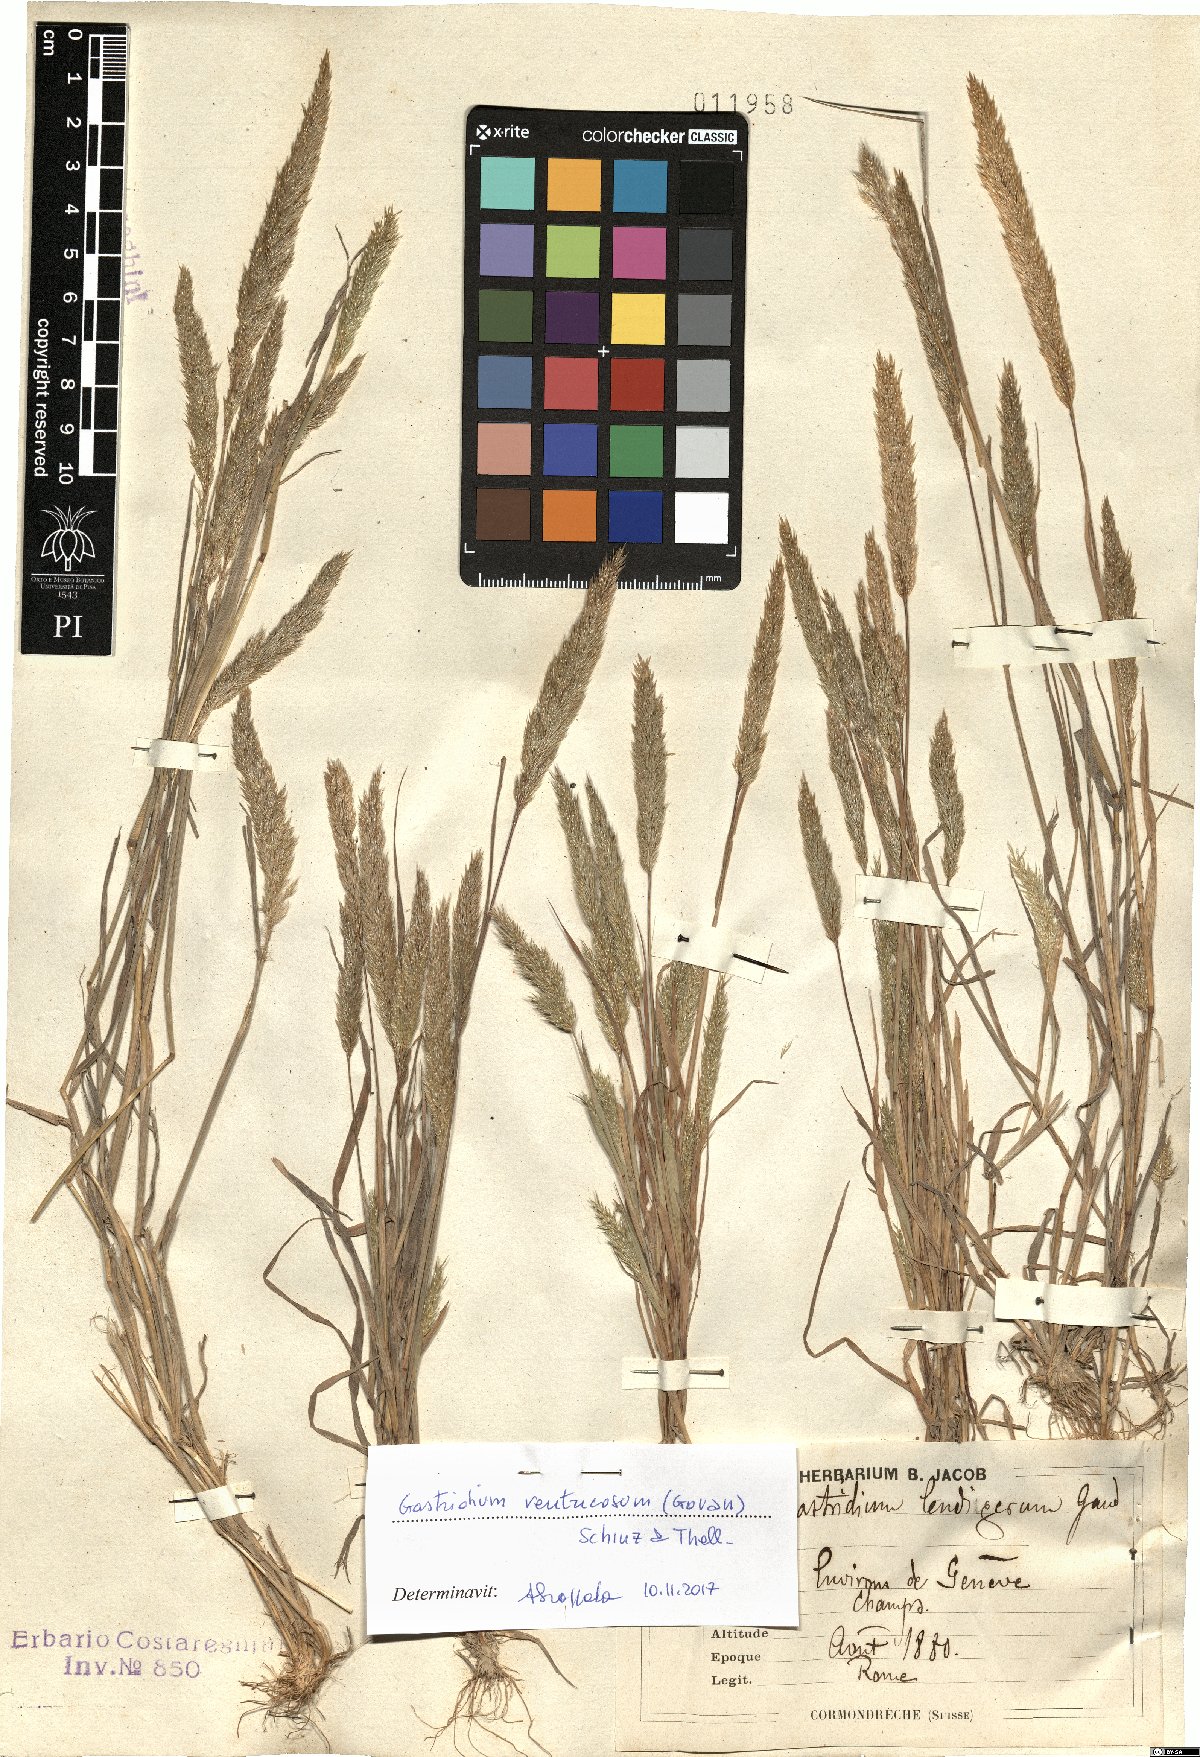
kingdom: Plantae
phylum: Tracheophyta
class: Liliopsida
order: Poales
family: Poaceae
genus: Gastridium
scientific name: Gastridium ventricosum
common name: Nit-grass
